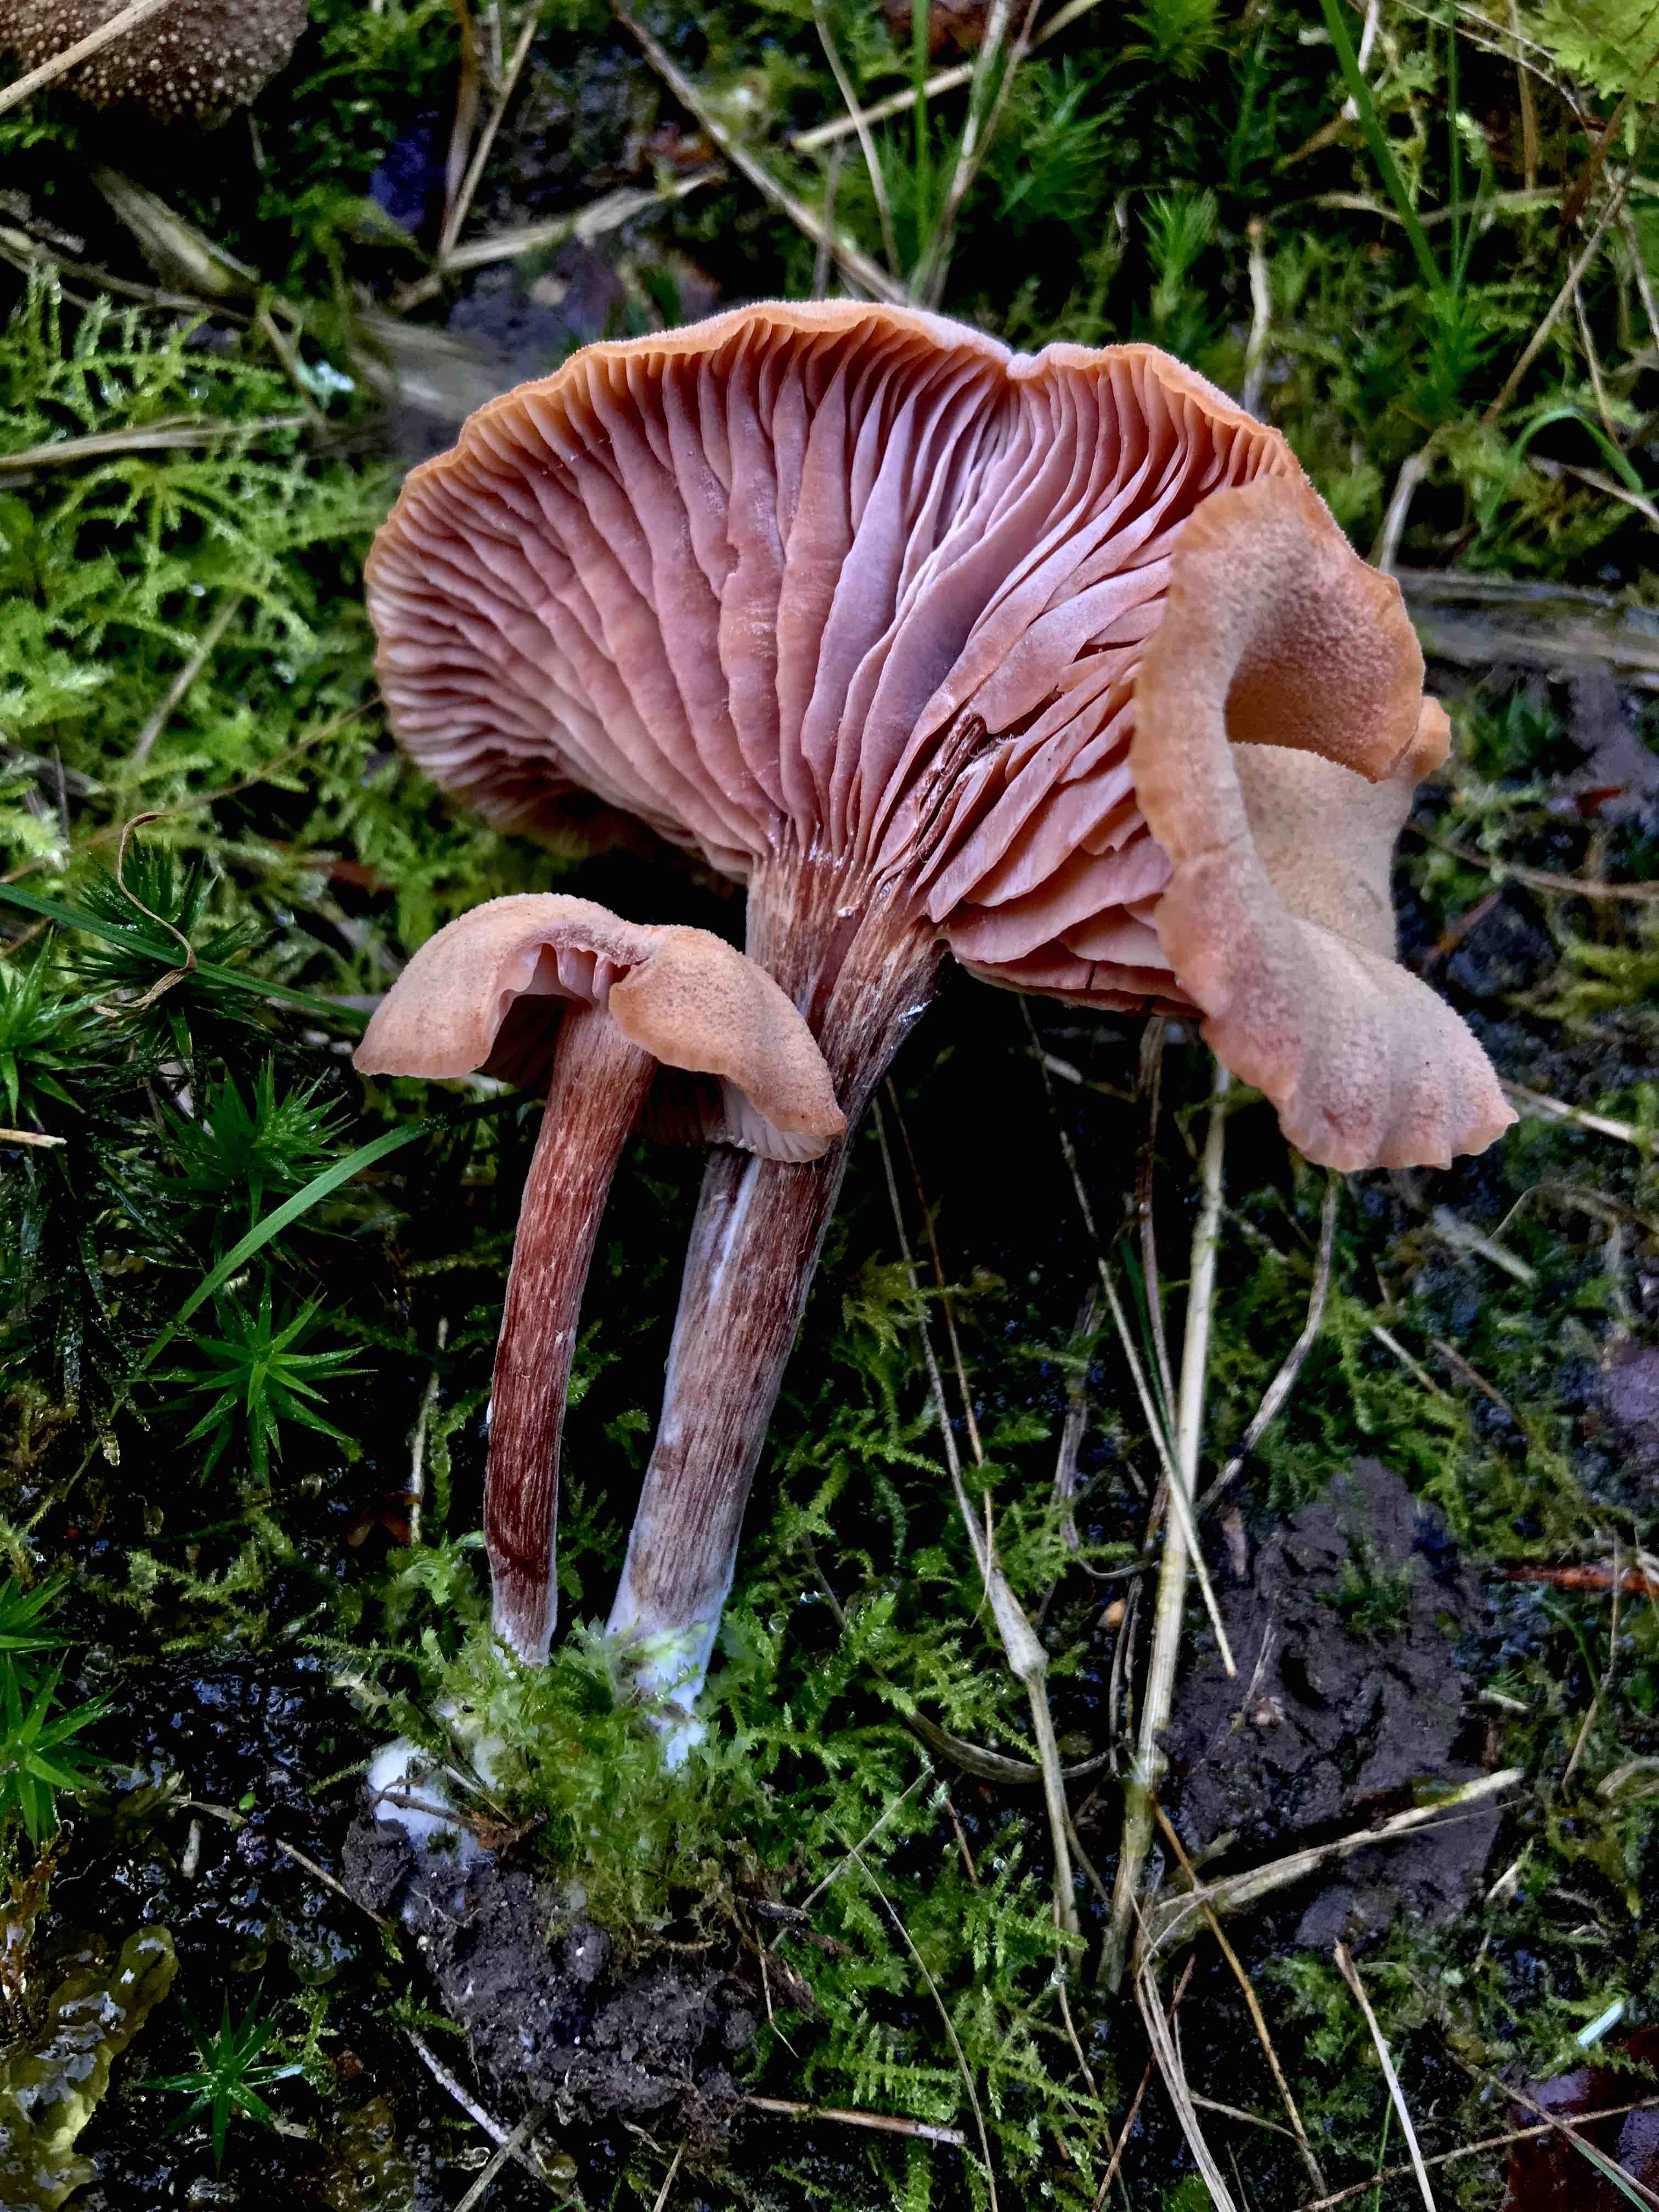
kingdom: Fungi
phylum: Basidiomycota
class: Agaricomycetes
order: Agaricales
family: Hydnangiaceae
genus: Laccaria
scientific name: Laccaria proxima
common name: stor ametysthat
